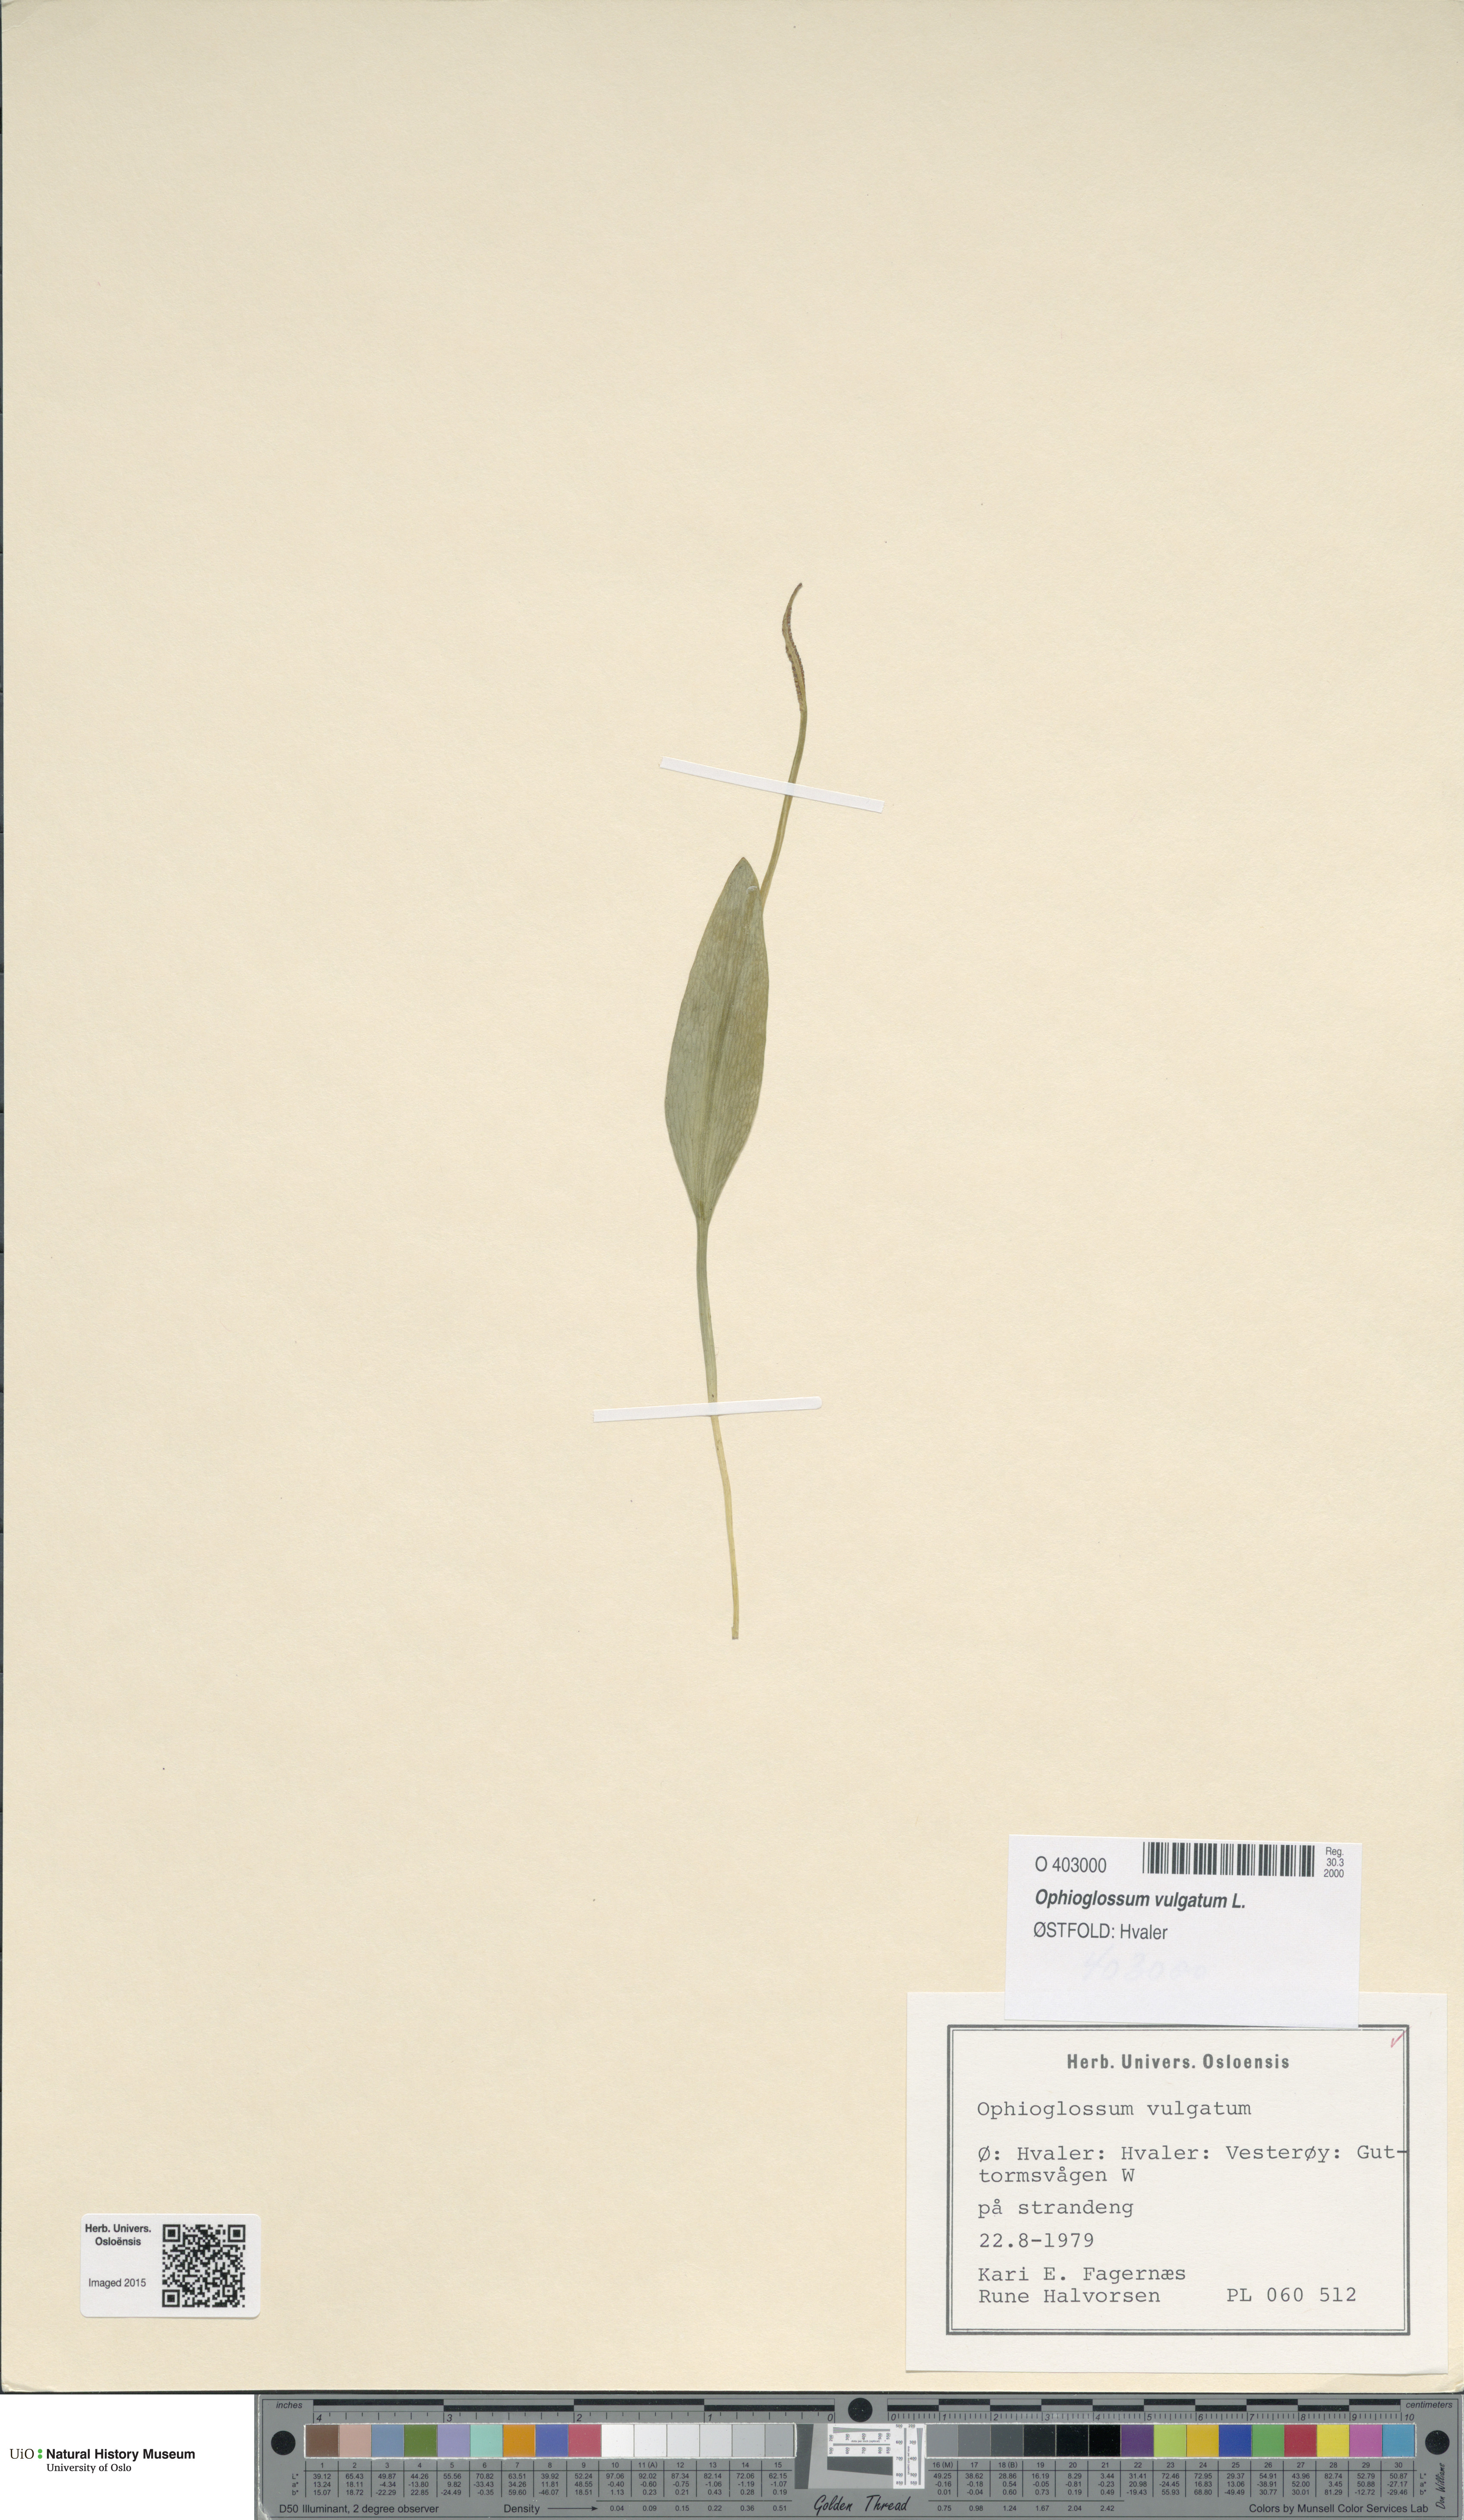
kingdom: Plantae
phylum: Tracheophyta
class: Polypodiopsida
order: Ophioglossales
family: Ophioglossaceae
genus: Ophioglossum
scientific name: Ophioglossum vulgatum
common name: Adder's-tongue
